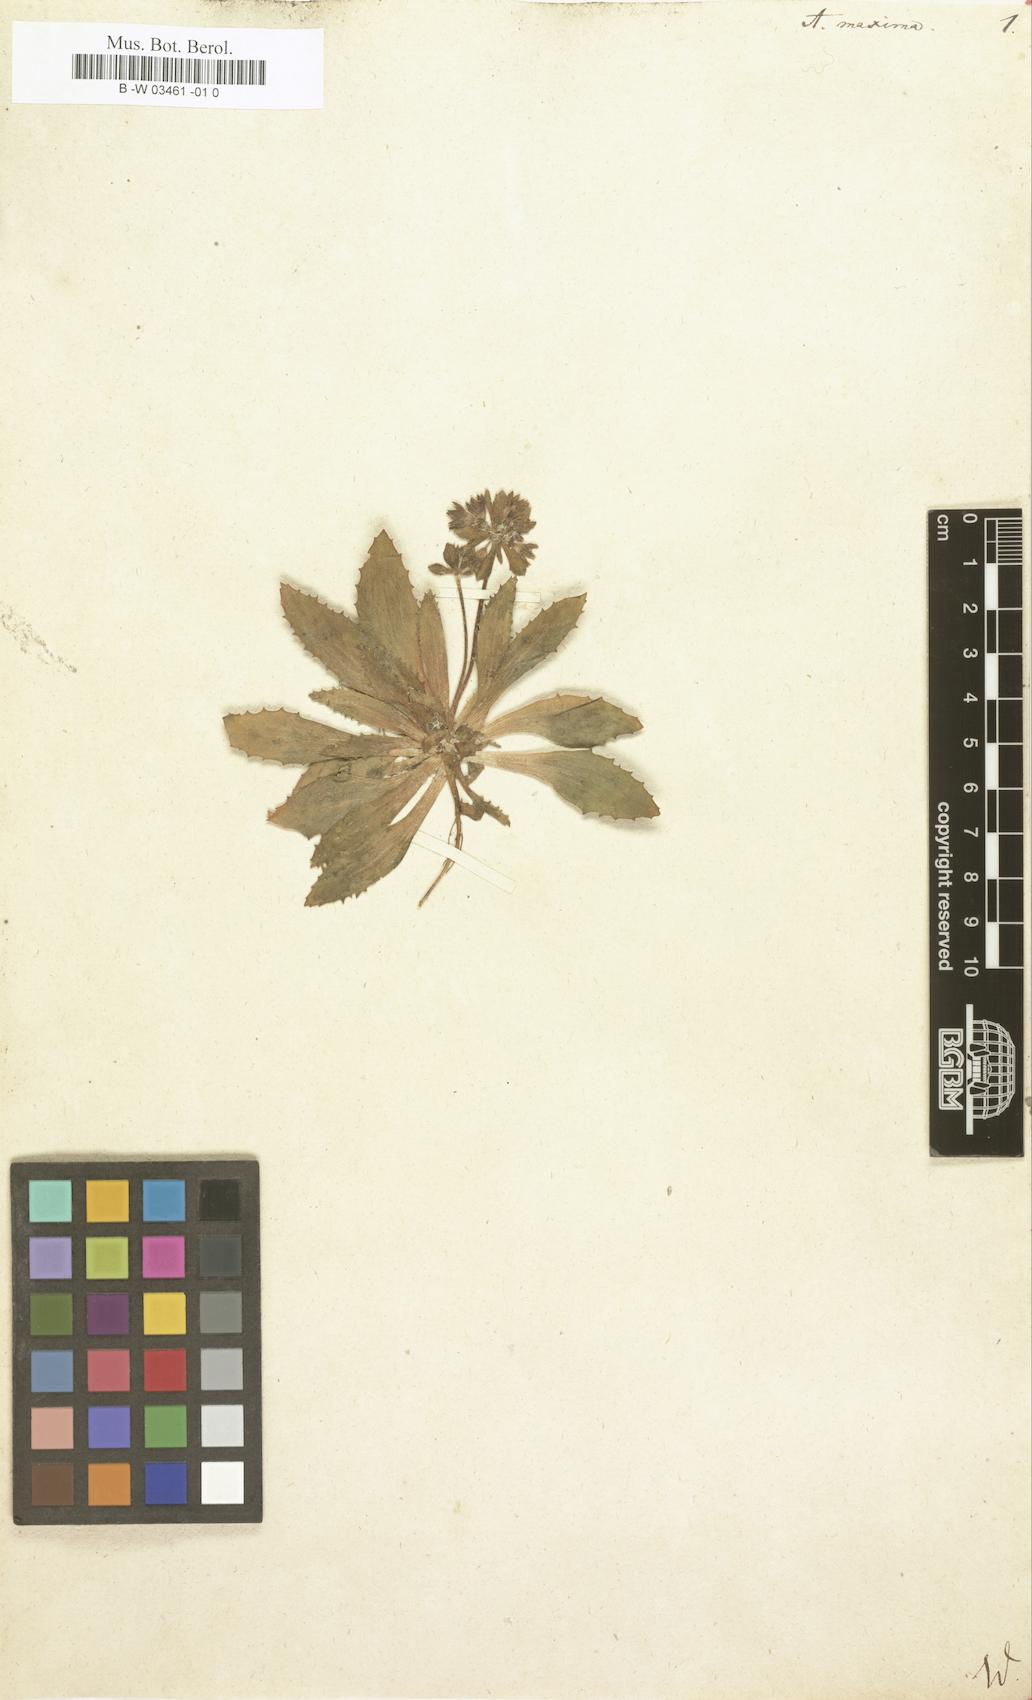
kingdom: Plantae
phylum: Tracheophyta
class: Magnoliopsida
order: Ericales
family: Primulaceae
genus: Androsace
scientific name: Androsace maxima
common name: Annual androsace
